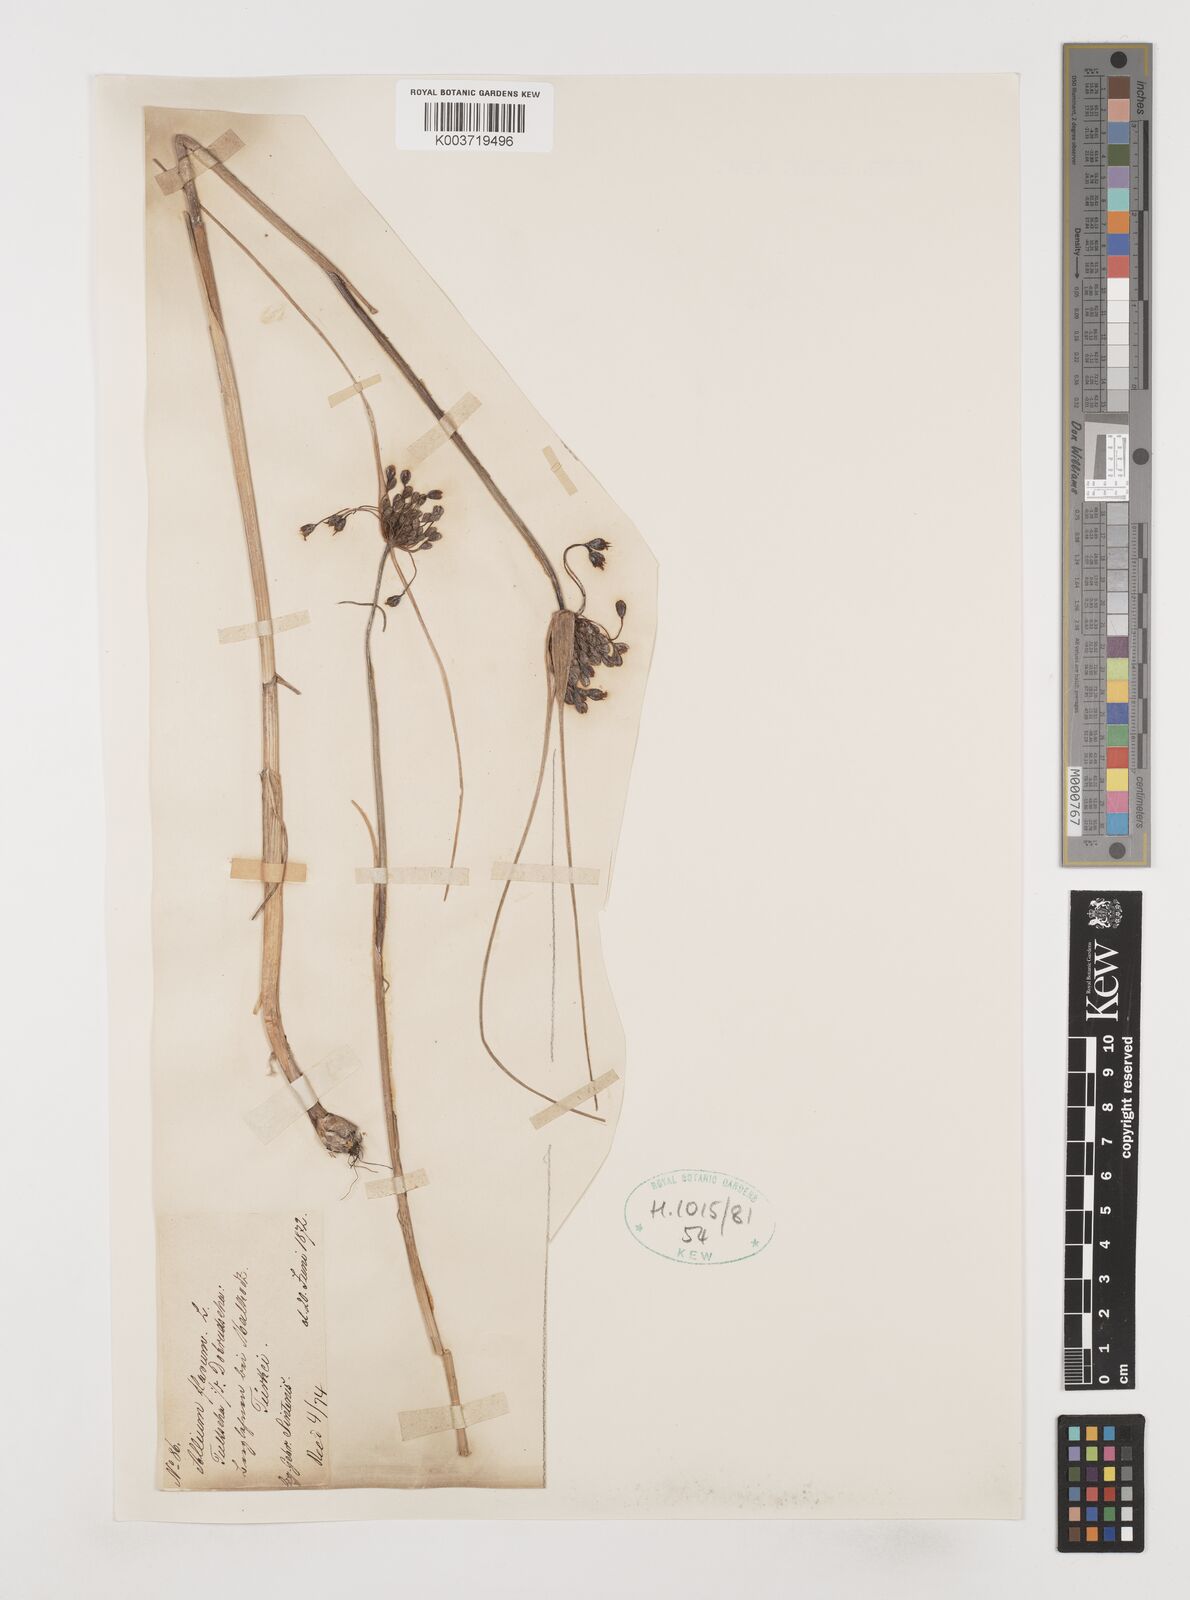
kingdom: Plantae
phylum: Tracheophyta
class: Liliopsida
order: Asparagales
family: Amaryllidaceae
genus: Allium
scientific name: Allium flavum
